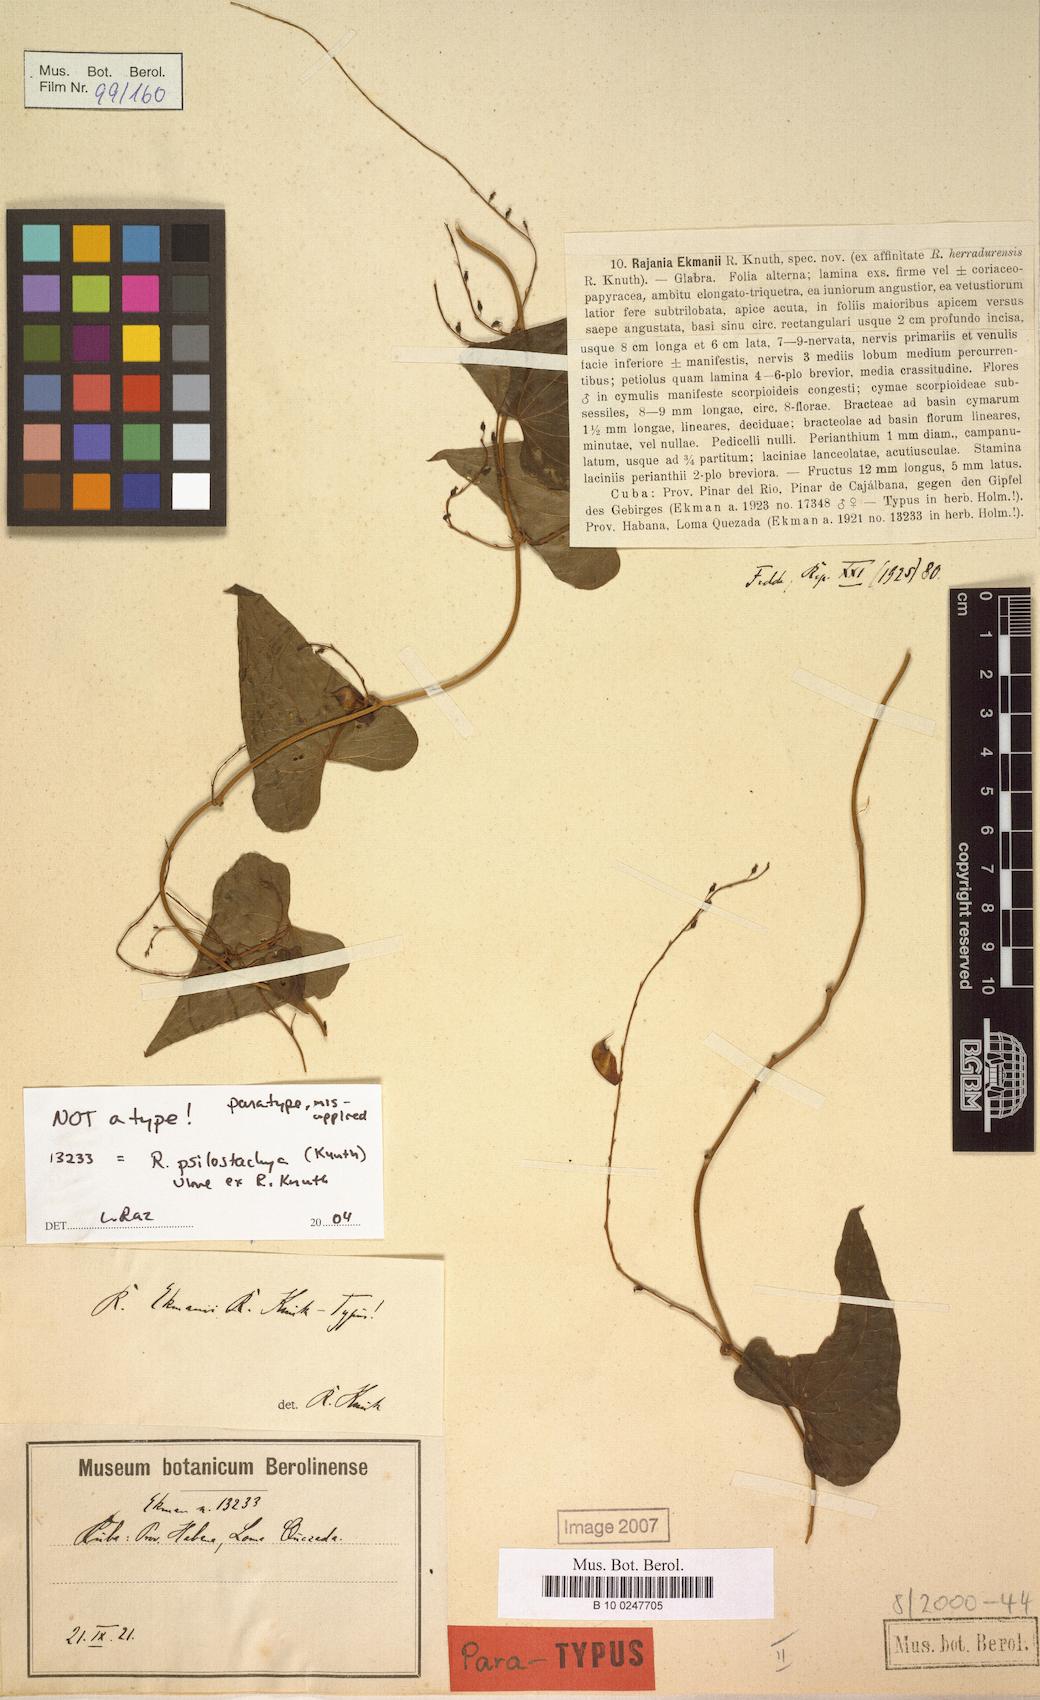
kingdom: Plantae
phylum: Tracheophyta
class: Liliopsida
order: Dioscoreales
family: Dioscoreaceae
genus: Dioscorea
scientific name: Dioscorea scorpioidea
